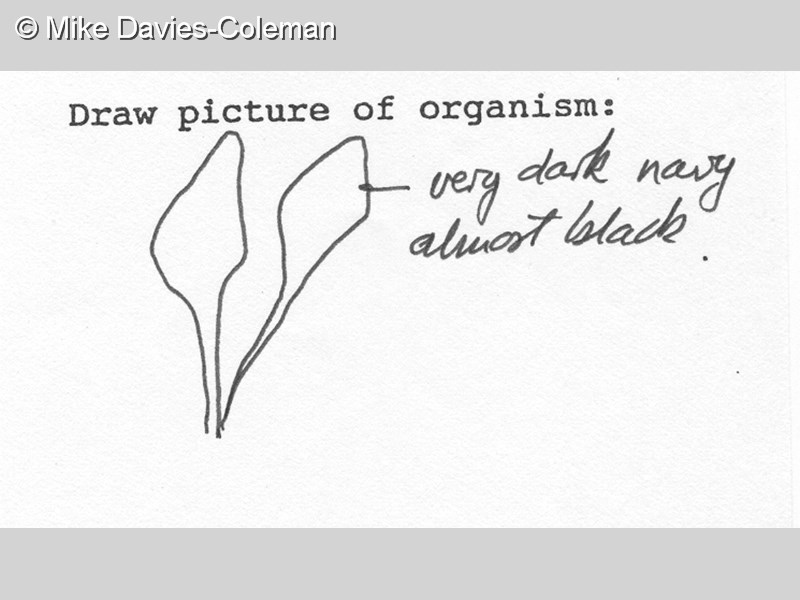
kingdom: Animalia
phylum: Chordata
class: Ascidiacea
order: Aplousobranchia
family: Polycitoridae
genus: Eudistoma
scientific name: Eudistoma caeruleum
